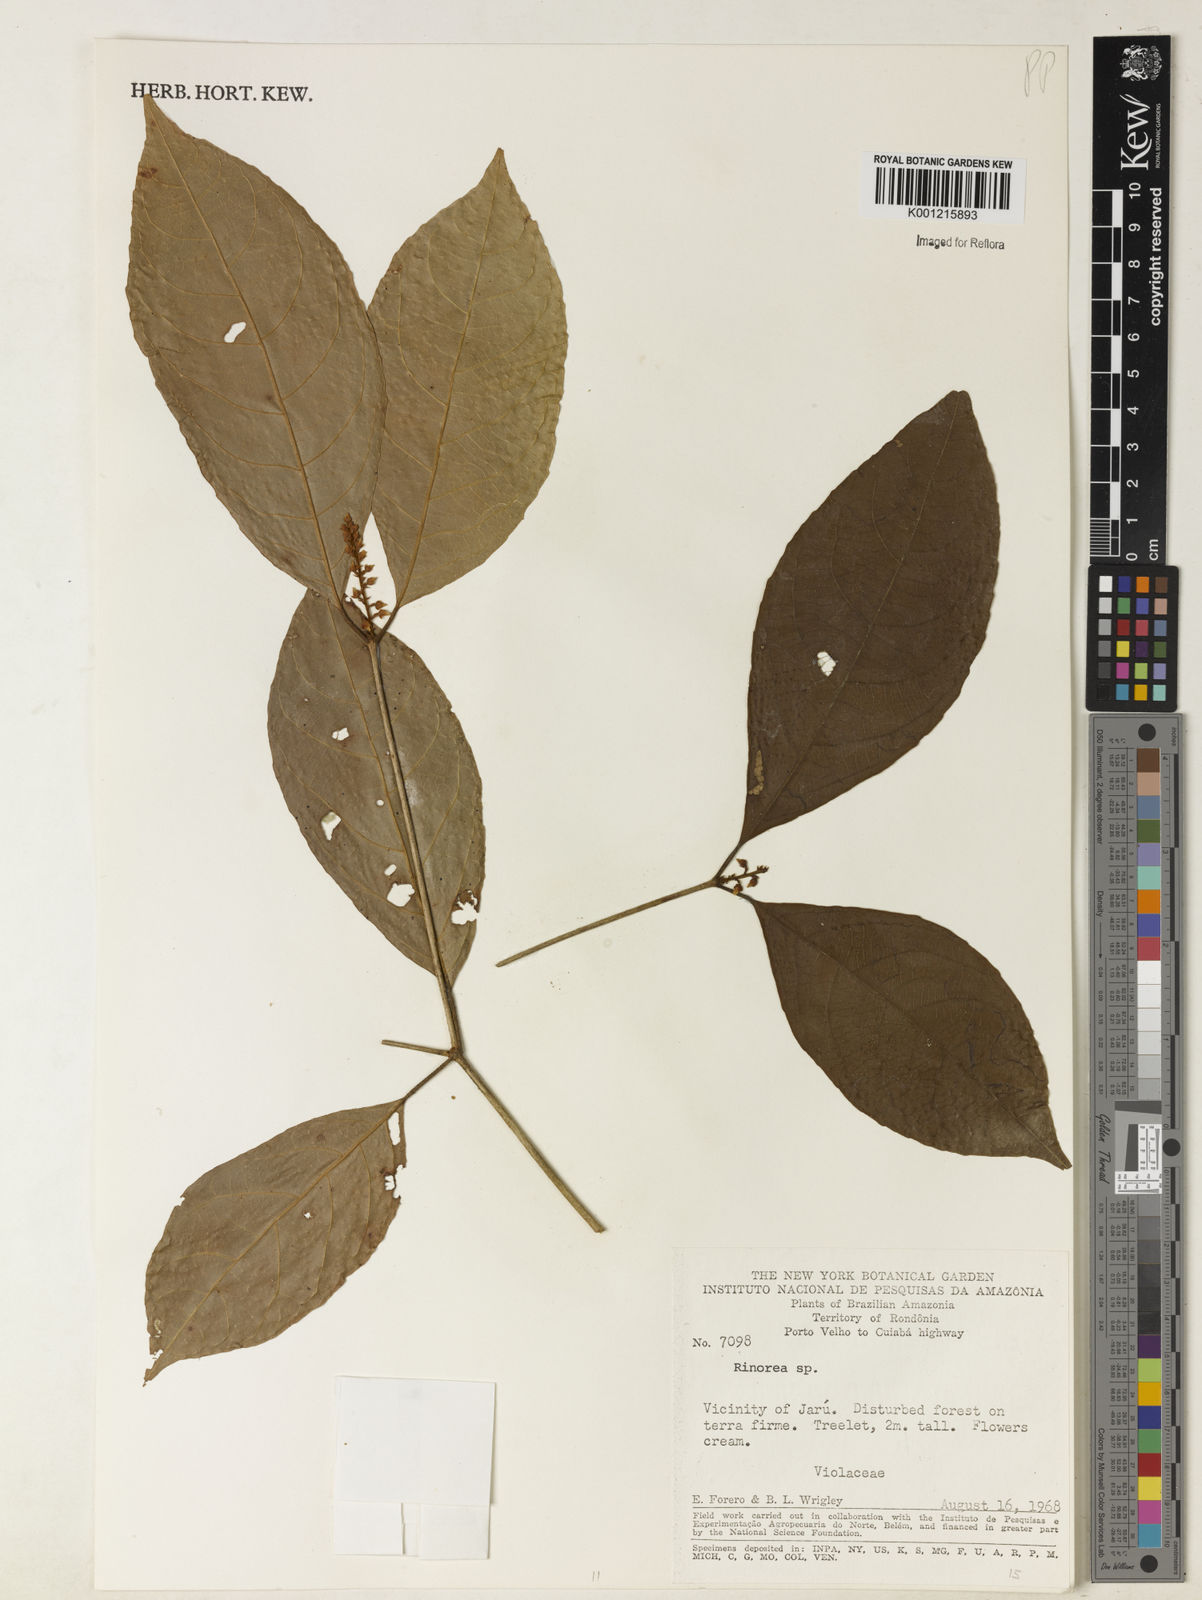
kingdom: Plantae
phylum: Tracheophyta
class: Magnoliopsida
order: Malpighiales
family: Violaceae
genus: Rinorea
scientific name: Rinorea
